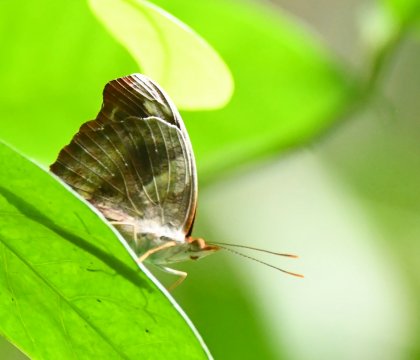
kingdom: Animalia
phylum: Arthropoda
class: Insecta
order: Lepidoptera
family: Nymphalidae
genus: Catonephele
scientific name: Catonephele mexicana
